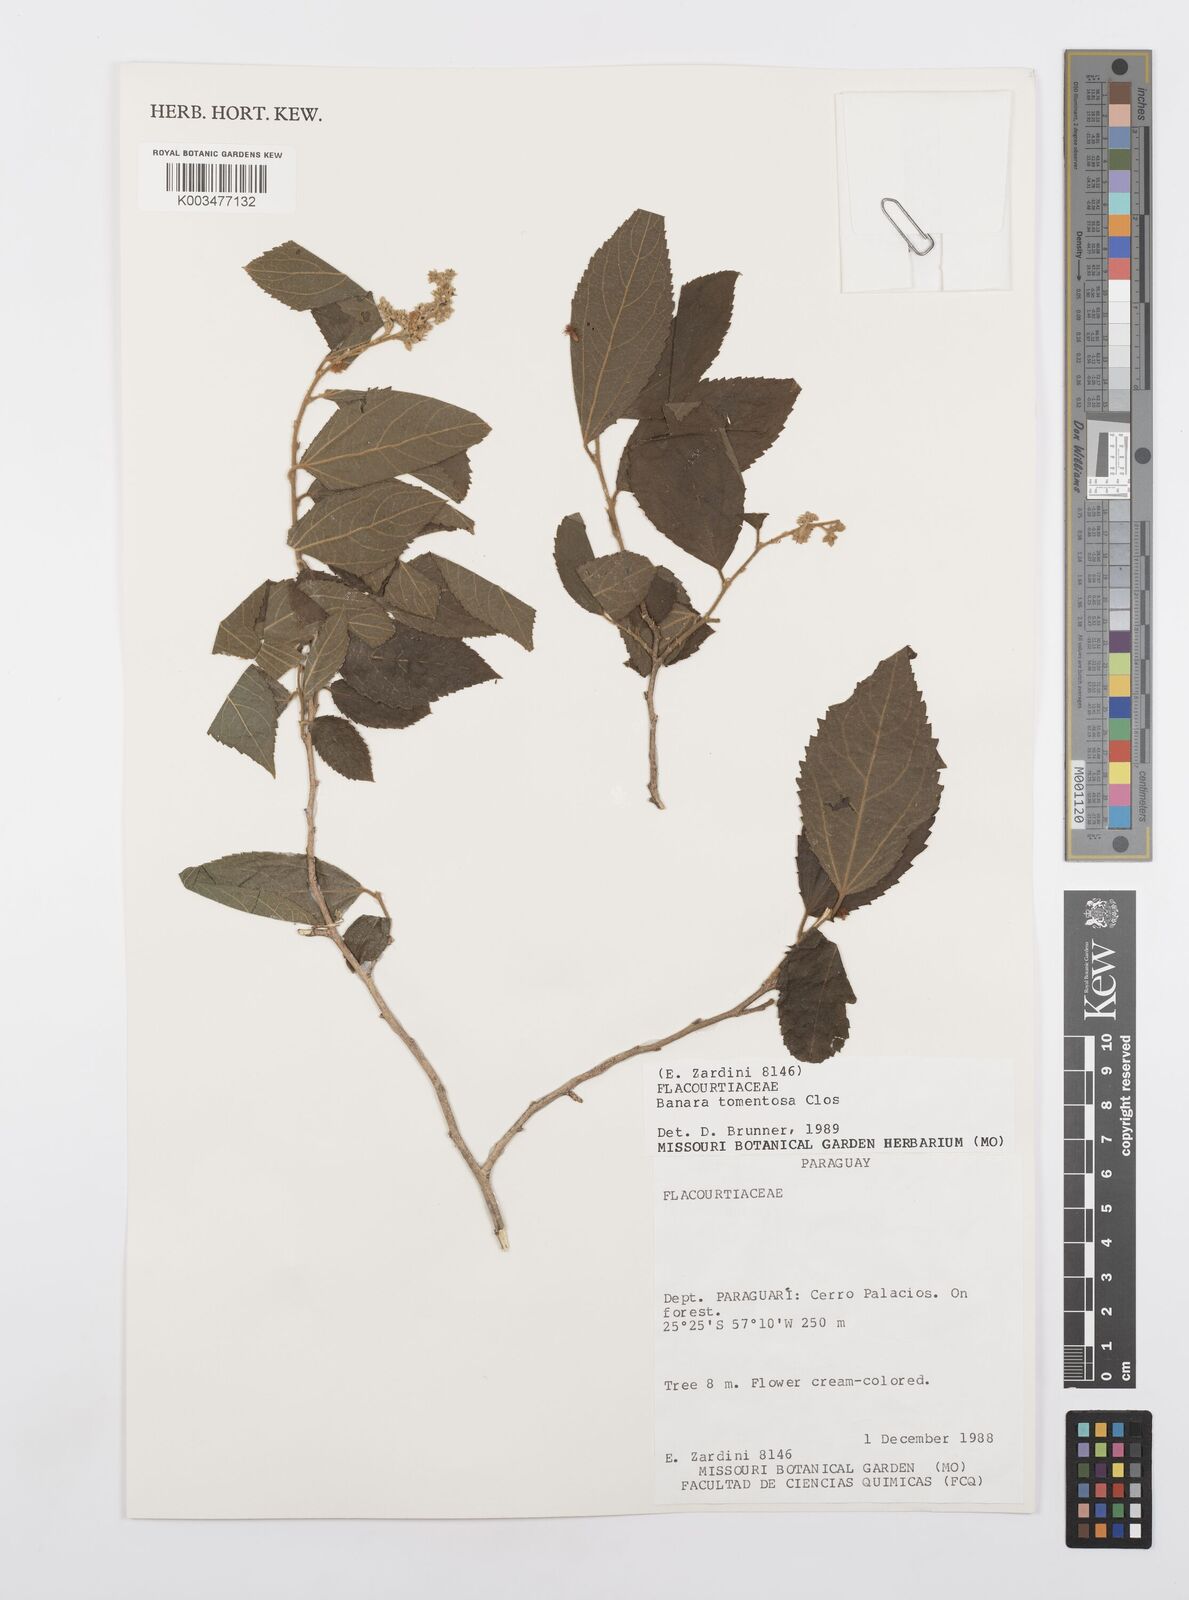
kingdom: Plantae
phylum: Tracheophyta
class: Magnoliopsida
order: Malpighiales
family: Salicaceae
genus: Banara
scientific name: Banara tomentosa
